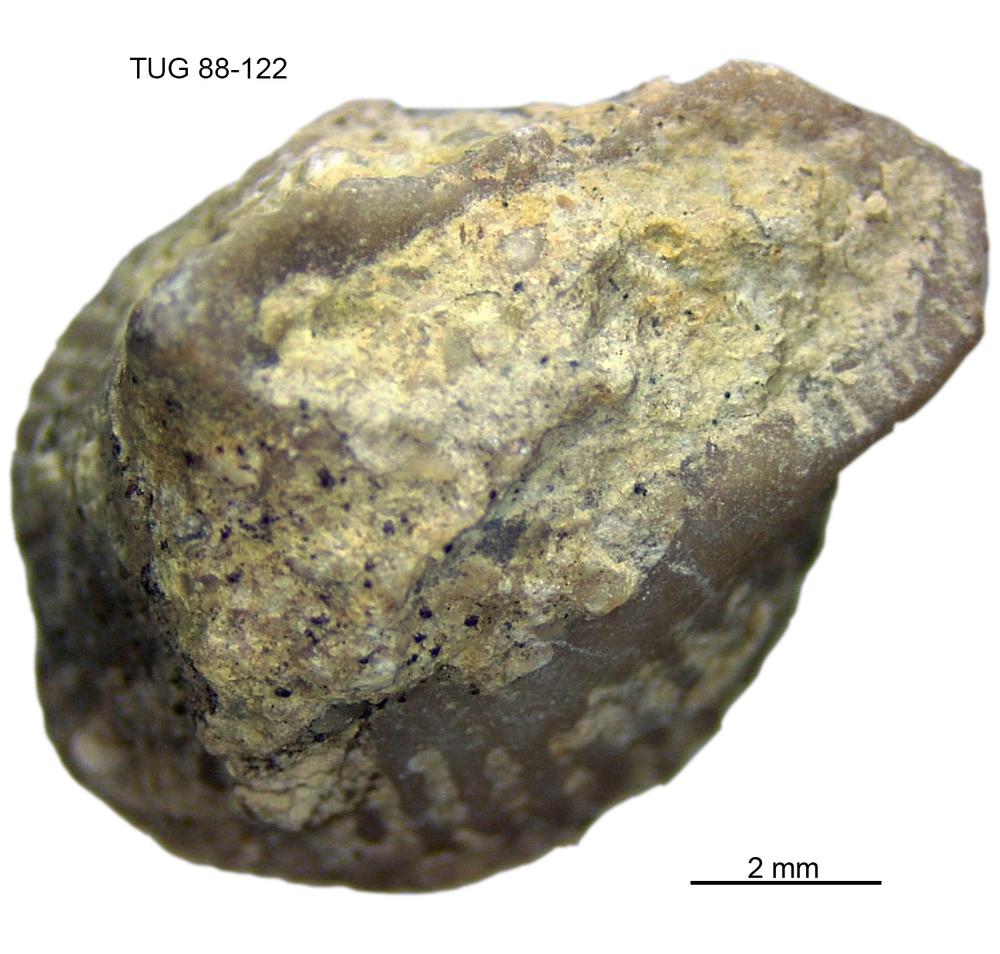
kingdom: Animalia
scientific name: Animalia
